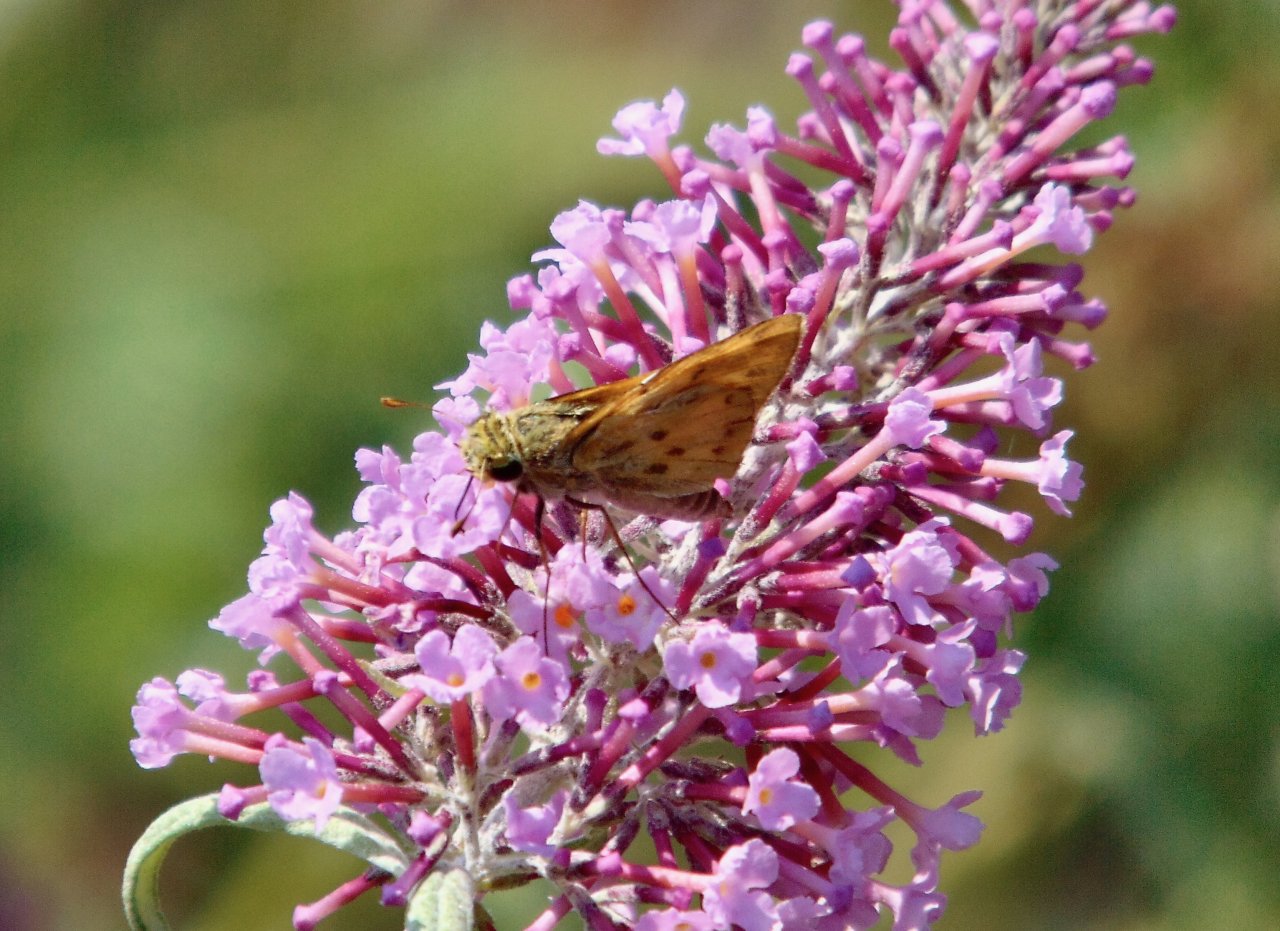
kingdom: Animalia
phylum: Arthropoda
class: Insecta
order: Lepidoptera
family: Hesperiidae
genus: Hylephila
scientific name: Hylephila phyleus
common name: Fiery Skipper
